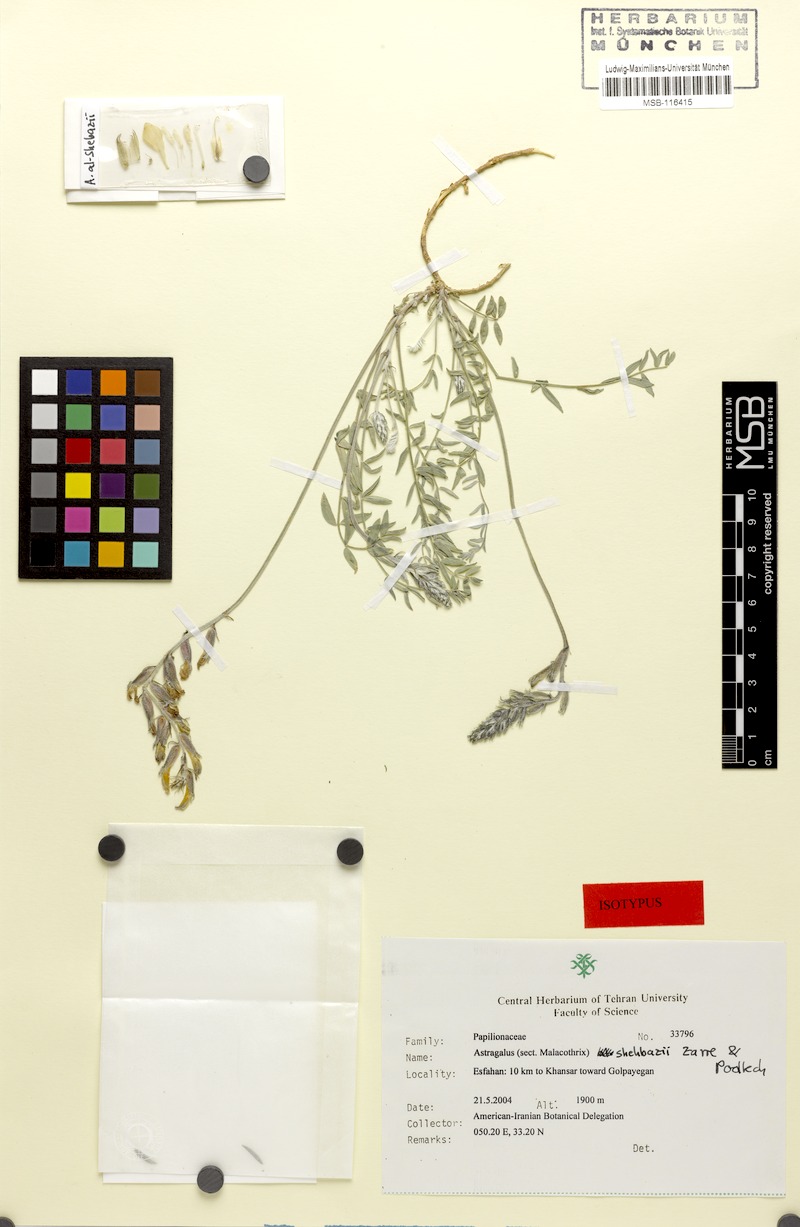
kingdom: Plantae
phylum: Tracheophyta
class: Magnoliopsida
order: Fabales
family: Fabaceae
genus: Astragalus
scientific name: Astragalus shehbazii
